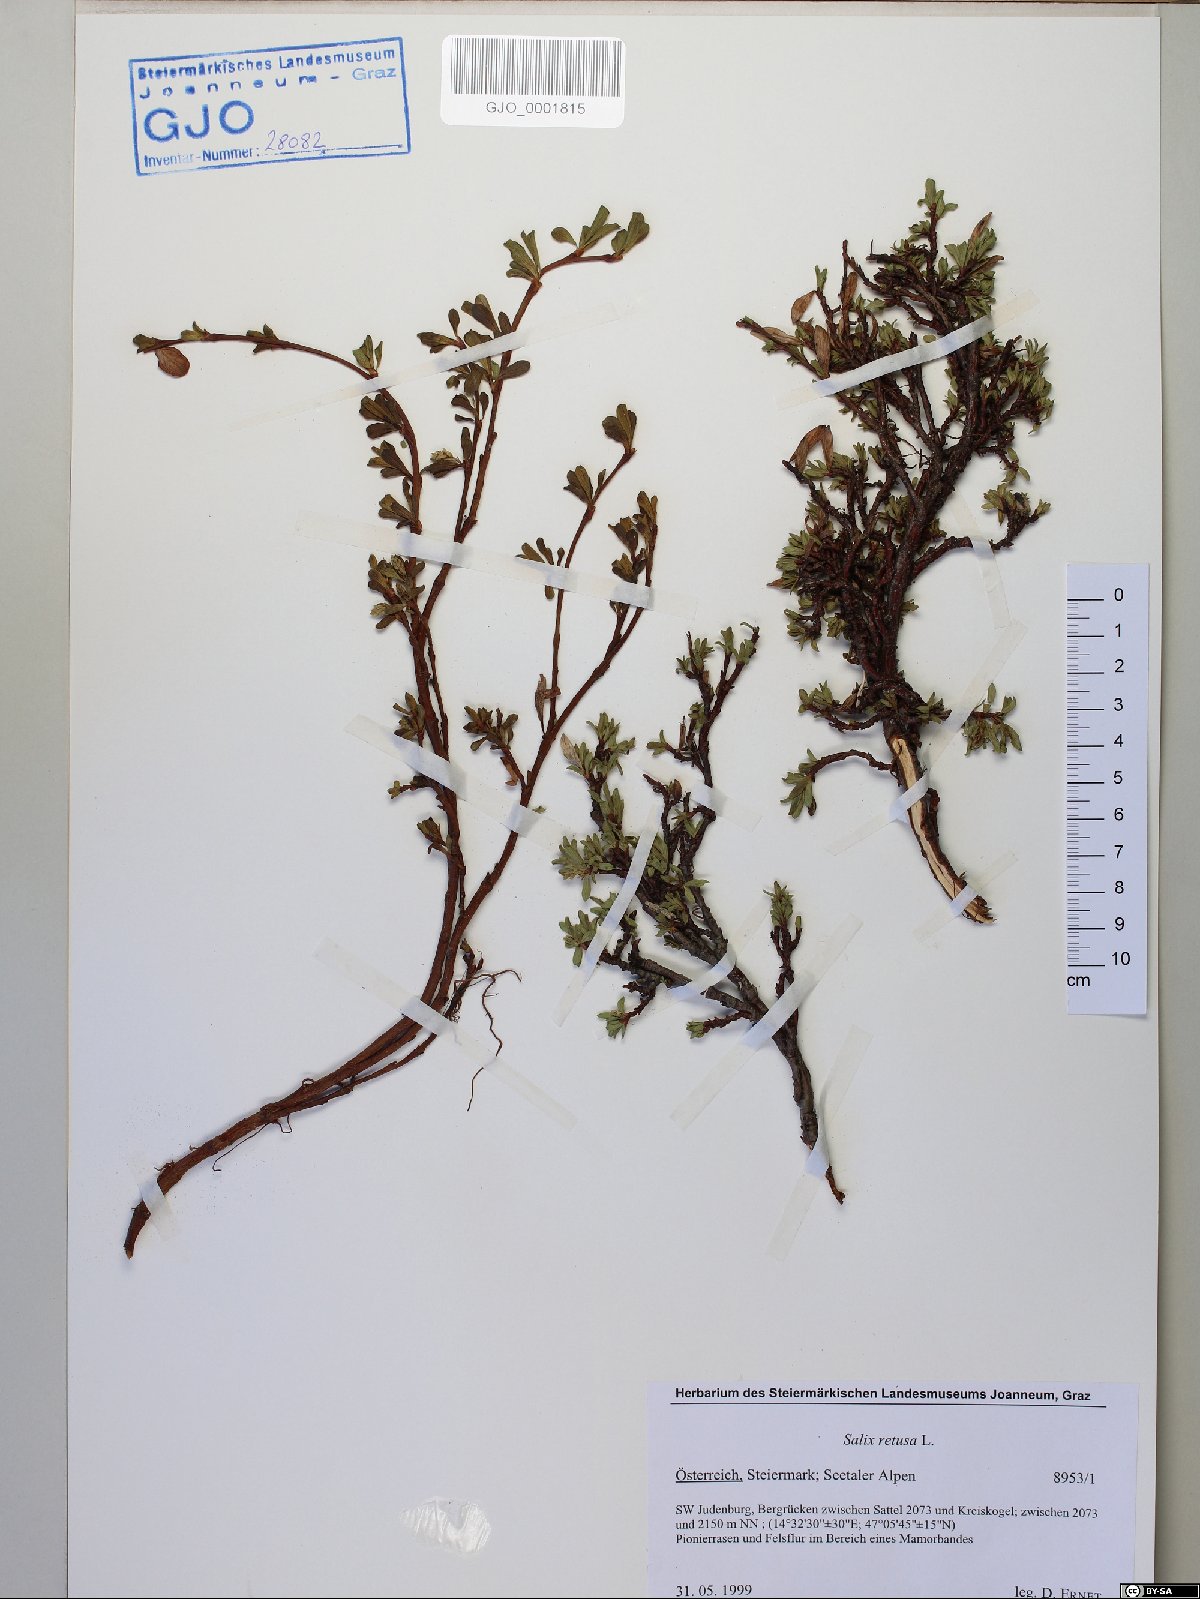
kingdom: Plantae
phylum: Tracheophyta
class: Magnoliopsida
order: Malpighiales
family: Salicaceae
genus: Salix
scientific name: Salix retusa
